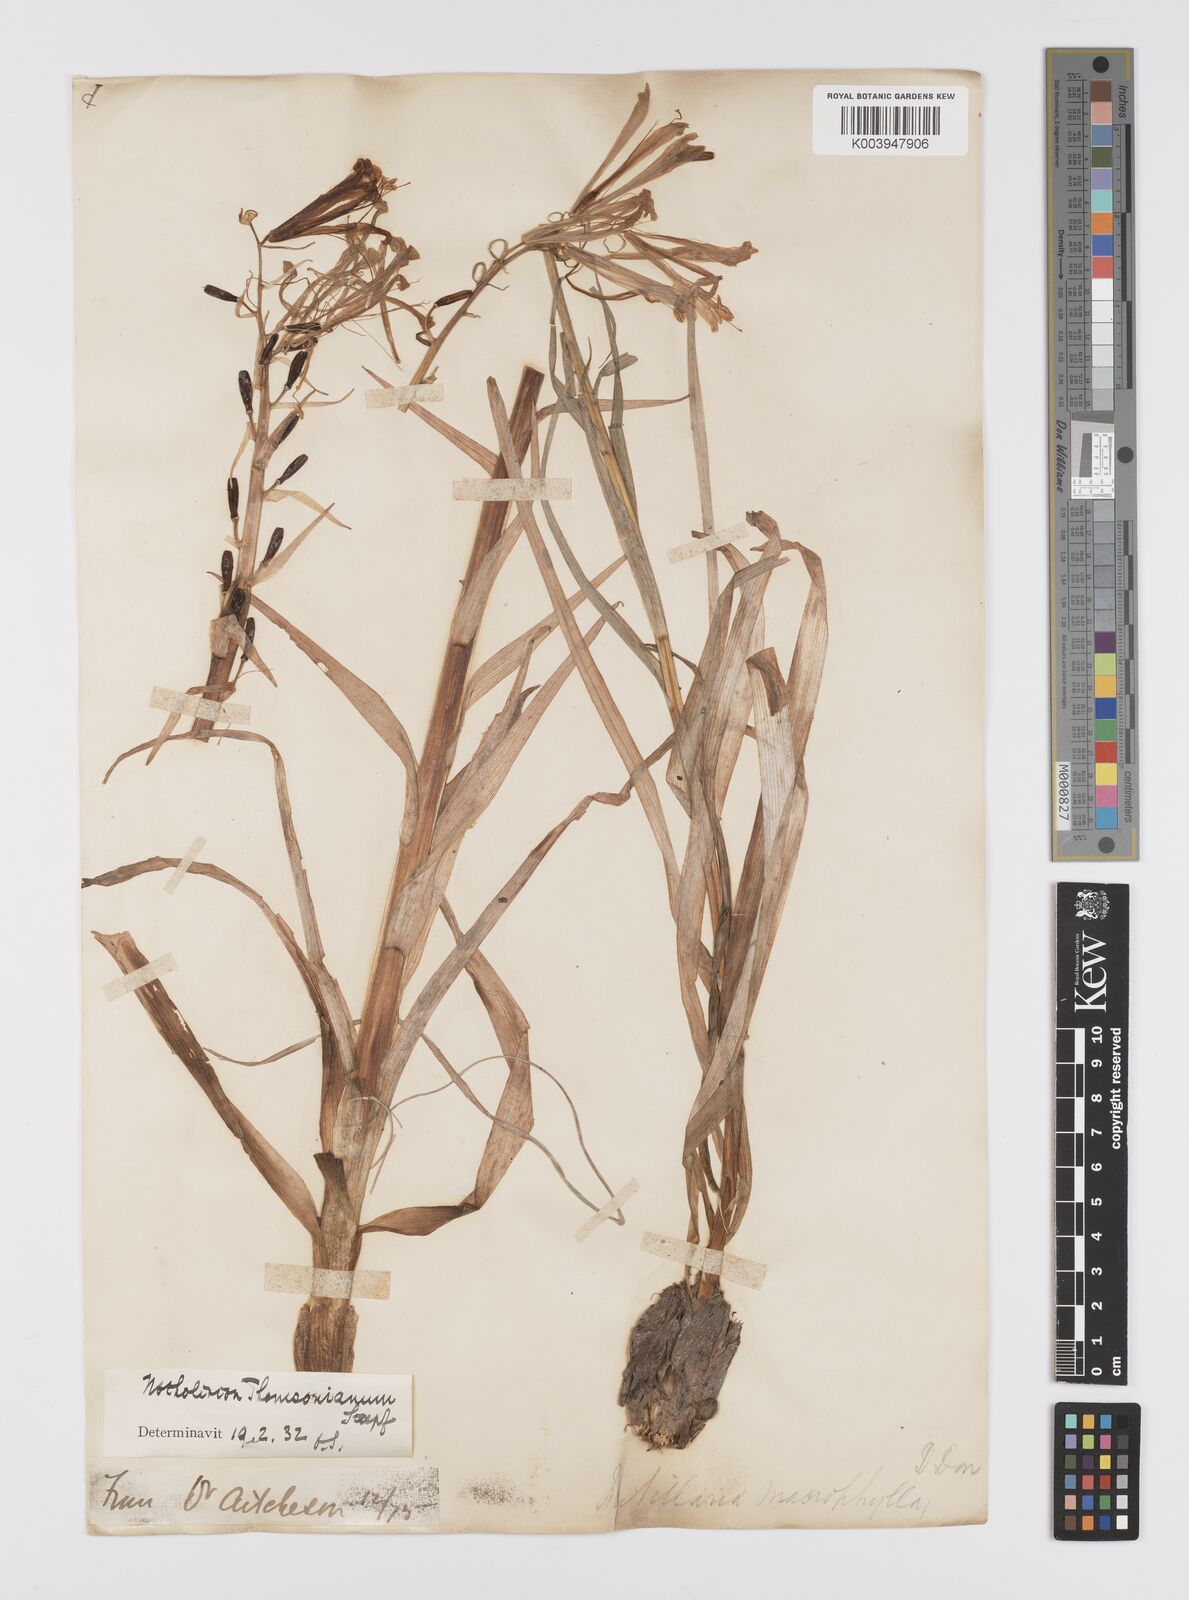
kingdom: Plantae
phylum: Tracheophyta
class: Liliopsida
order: Liliales
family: Liliaceae
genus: Notholirion
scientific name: Notholirion
